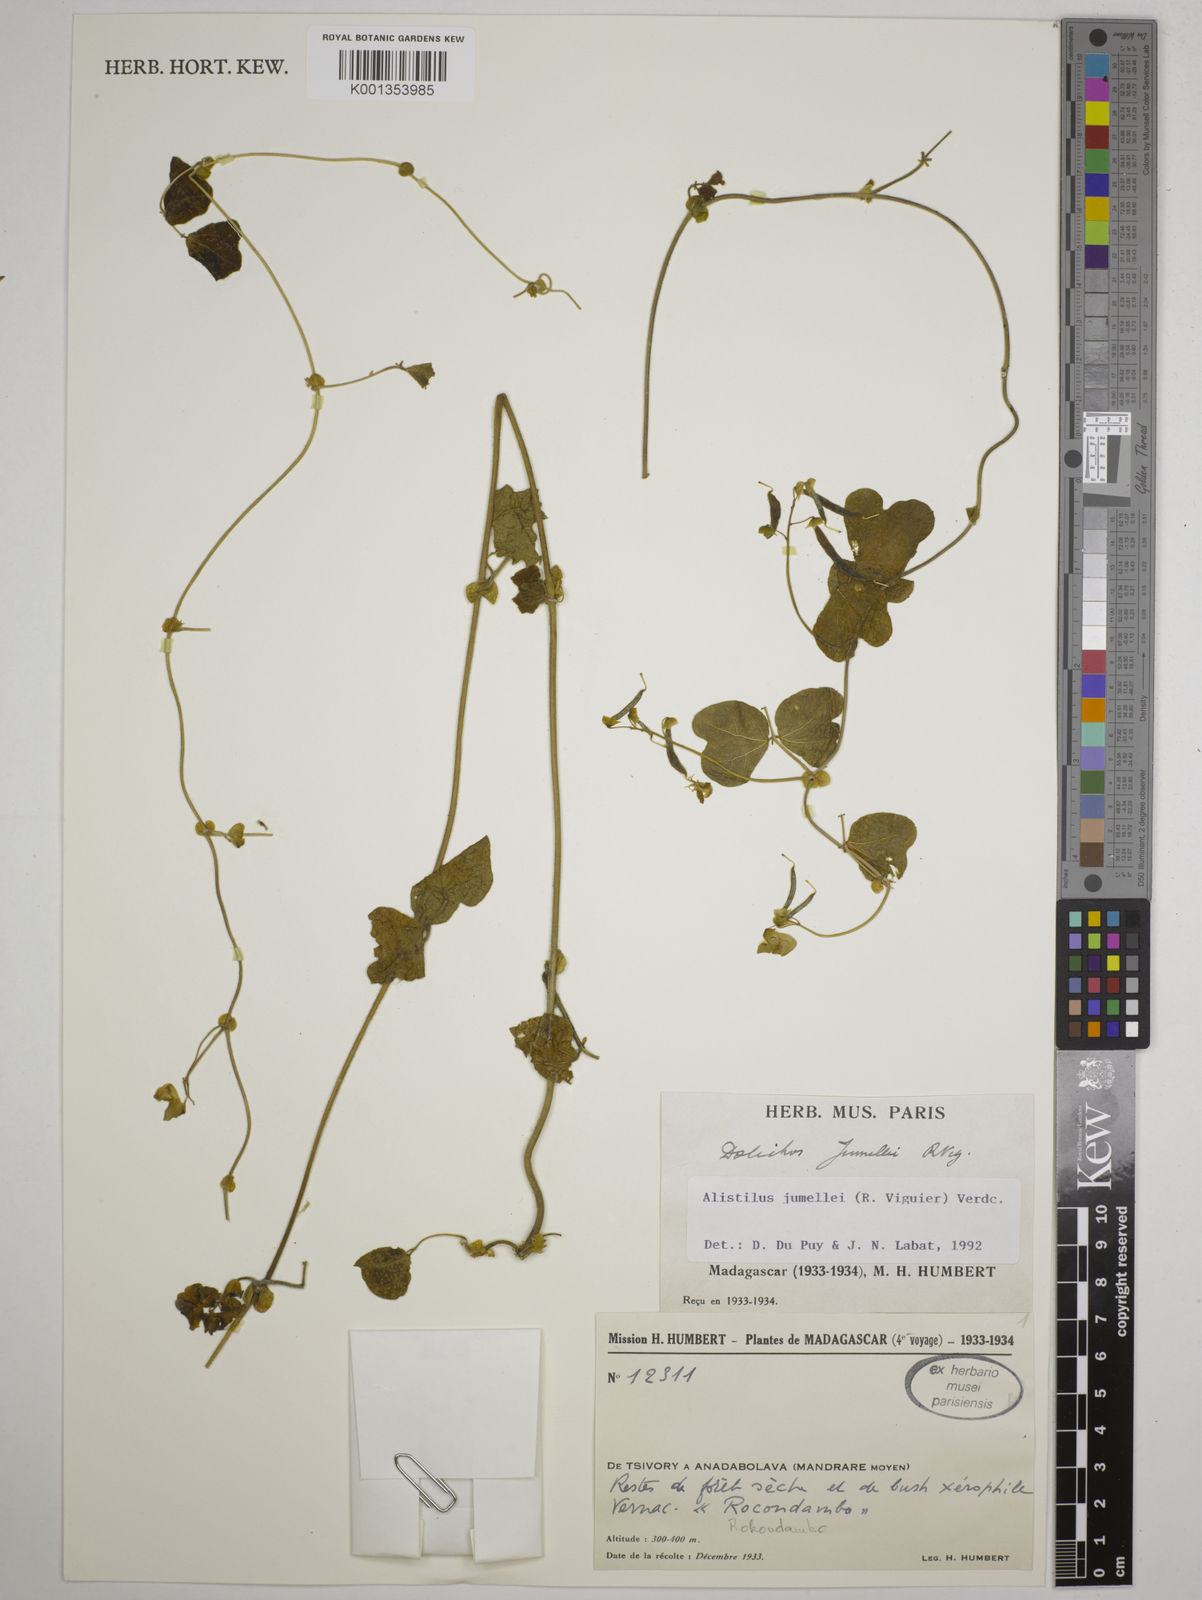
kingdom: Plantae
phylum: Tracheophyta
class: Magnoliopsida
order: Fabales
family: Fabaceae
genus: Alistilus
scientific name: Alistilus jumellei
